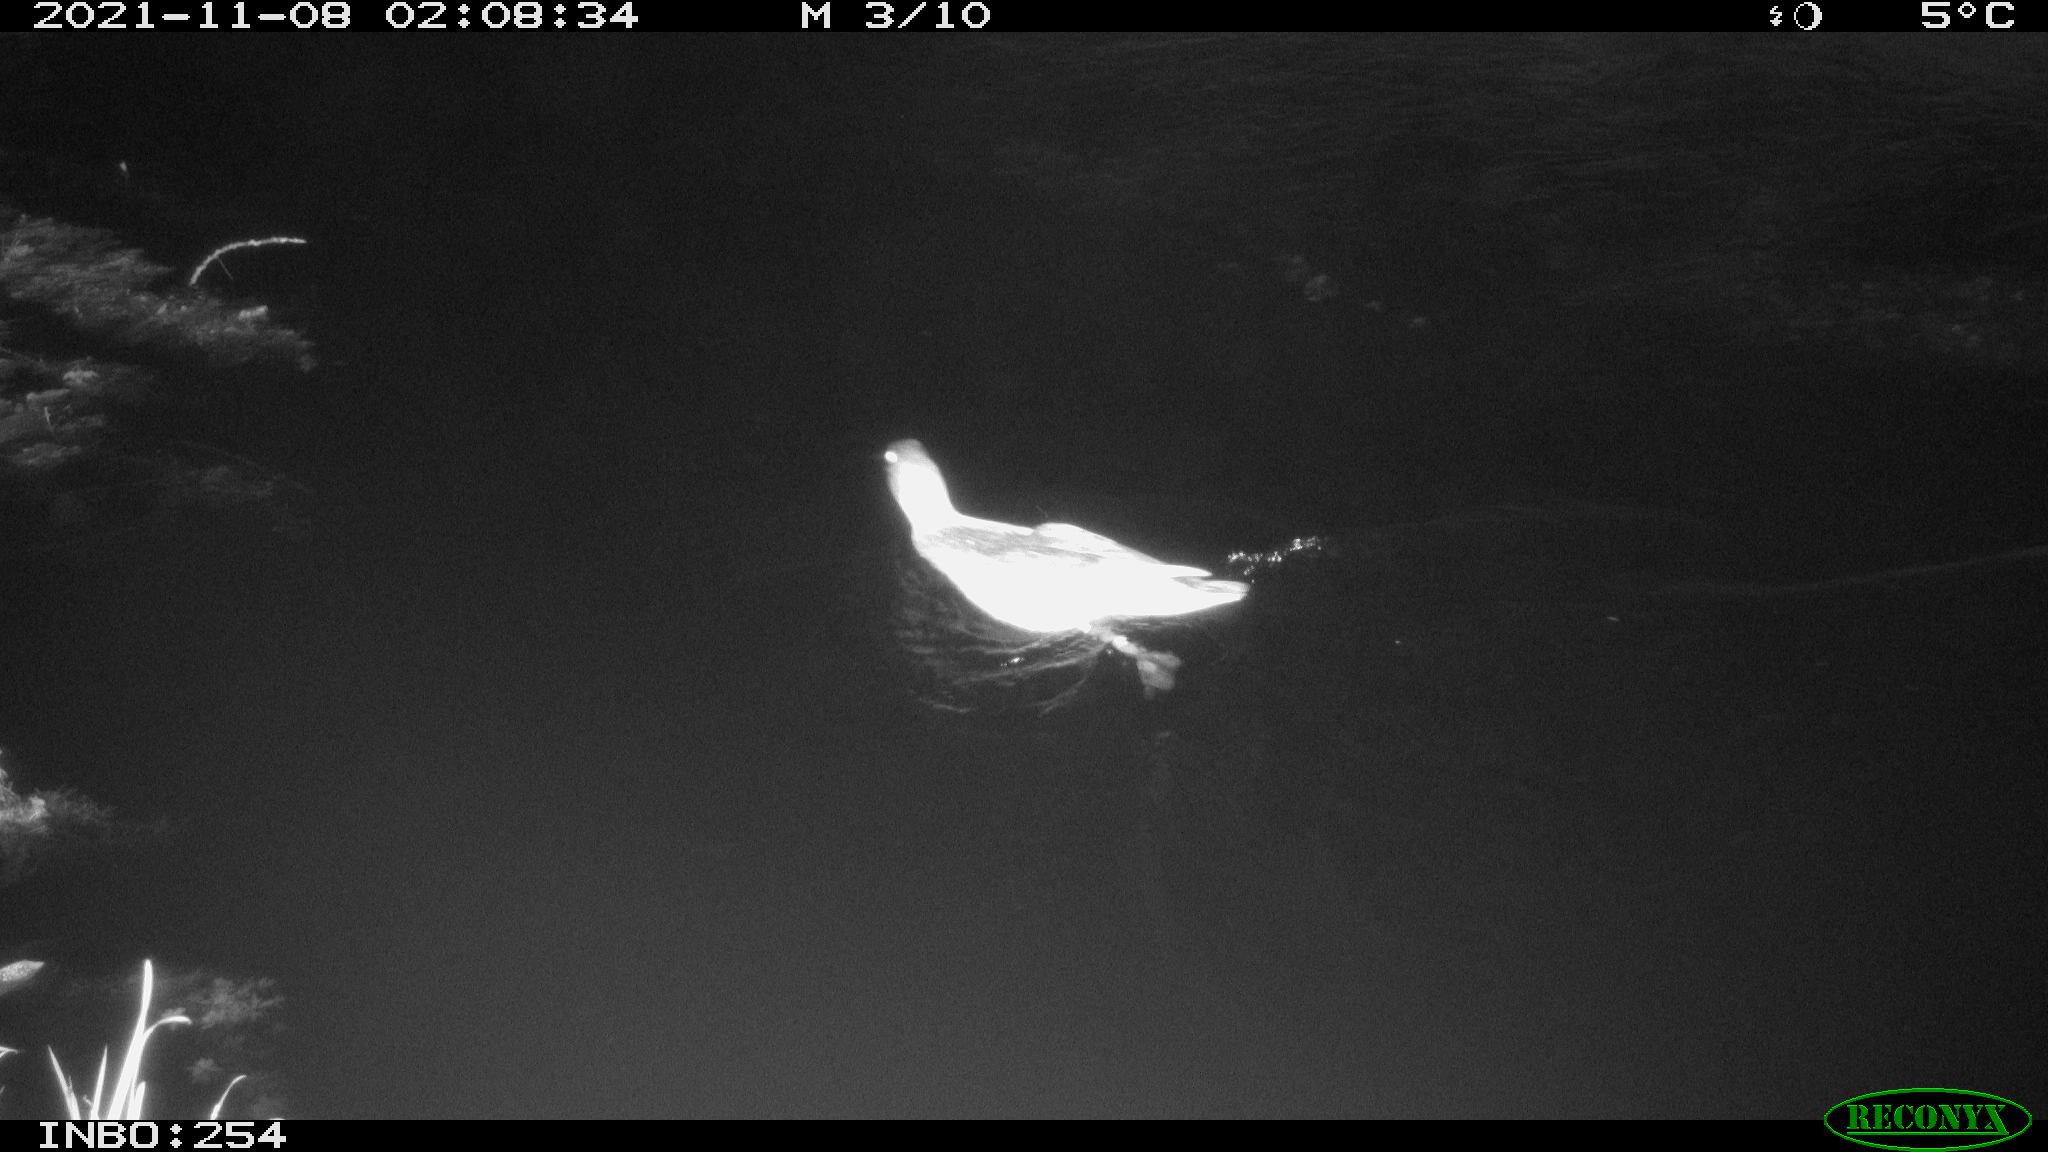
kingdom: Animalia
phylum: Chordata
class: Aves
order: Anseriformes
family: Anatidae
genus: Anas
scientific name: Anas platyrhynchos
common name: Mallard
